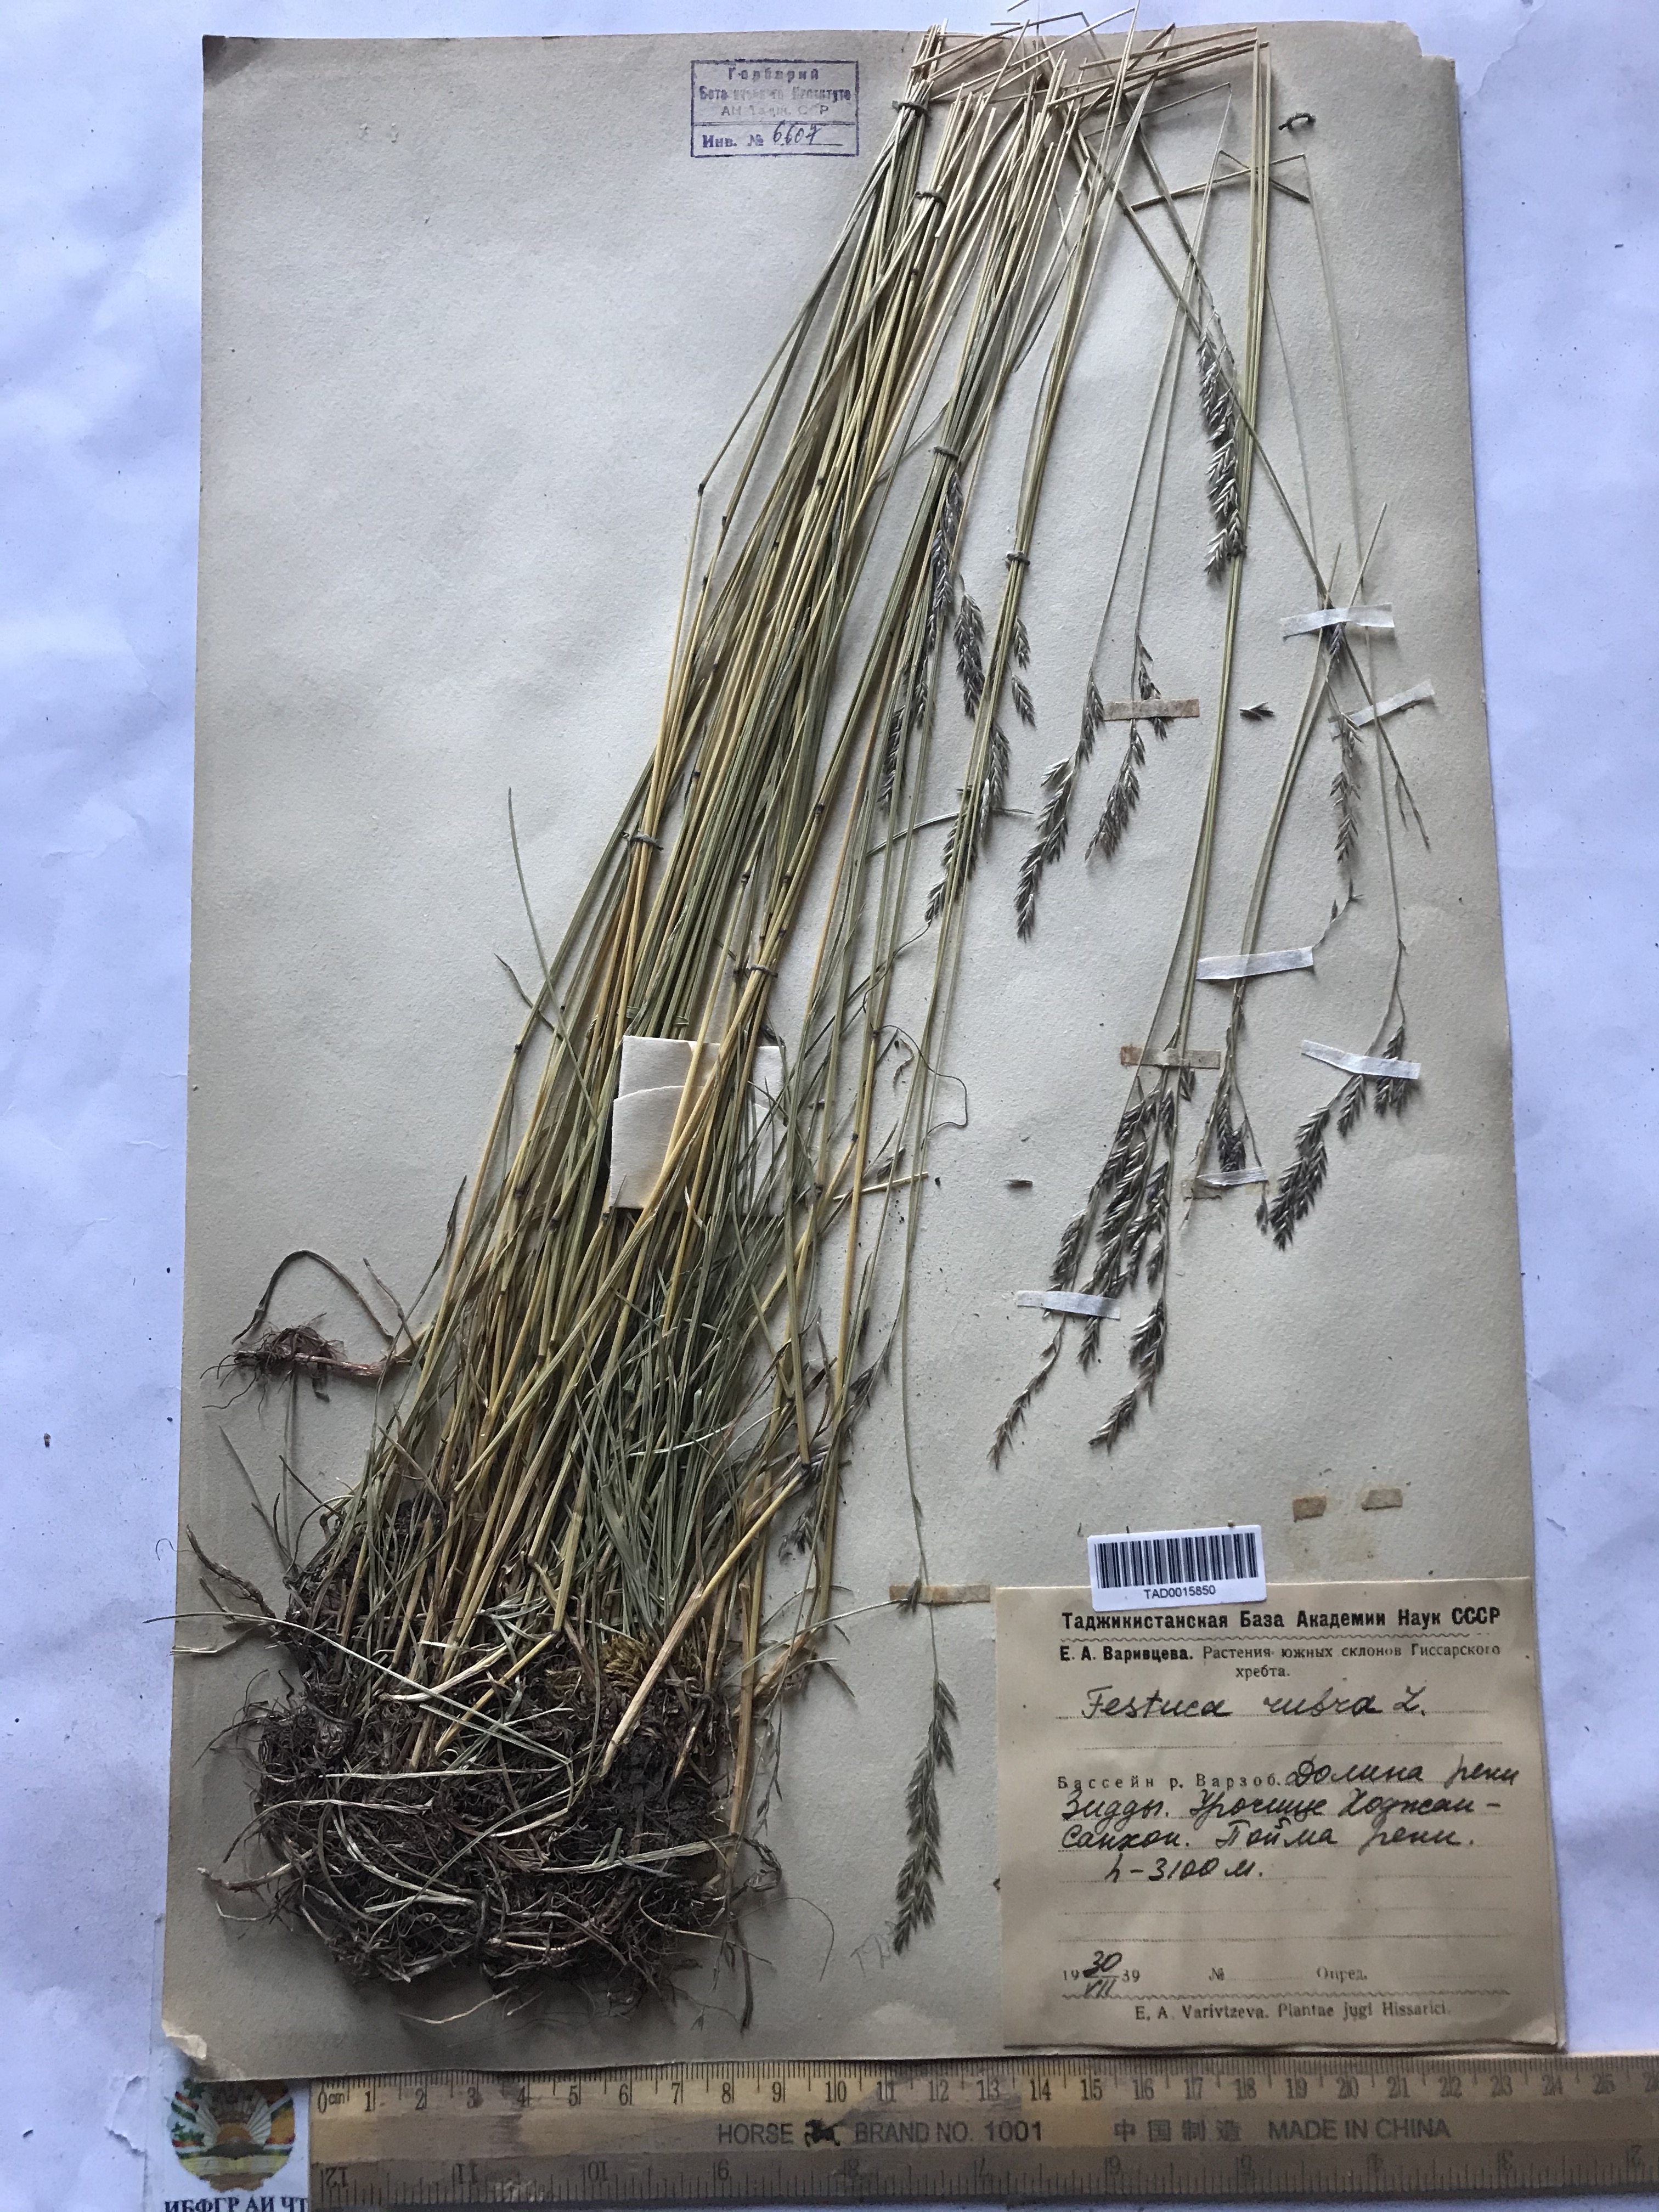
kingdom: Plantae
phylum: Tracheophyta
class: Liliopsida
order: Poales
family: Poaceae
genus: Festuca
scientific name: Festuca rubra
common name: Red fescue
